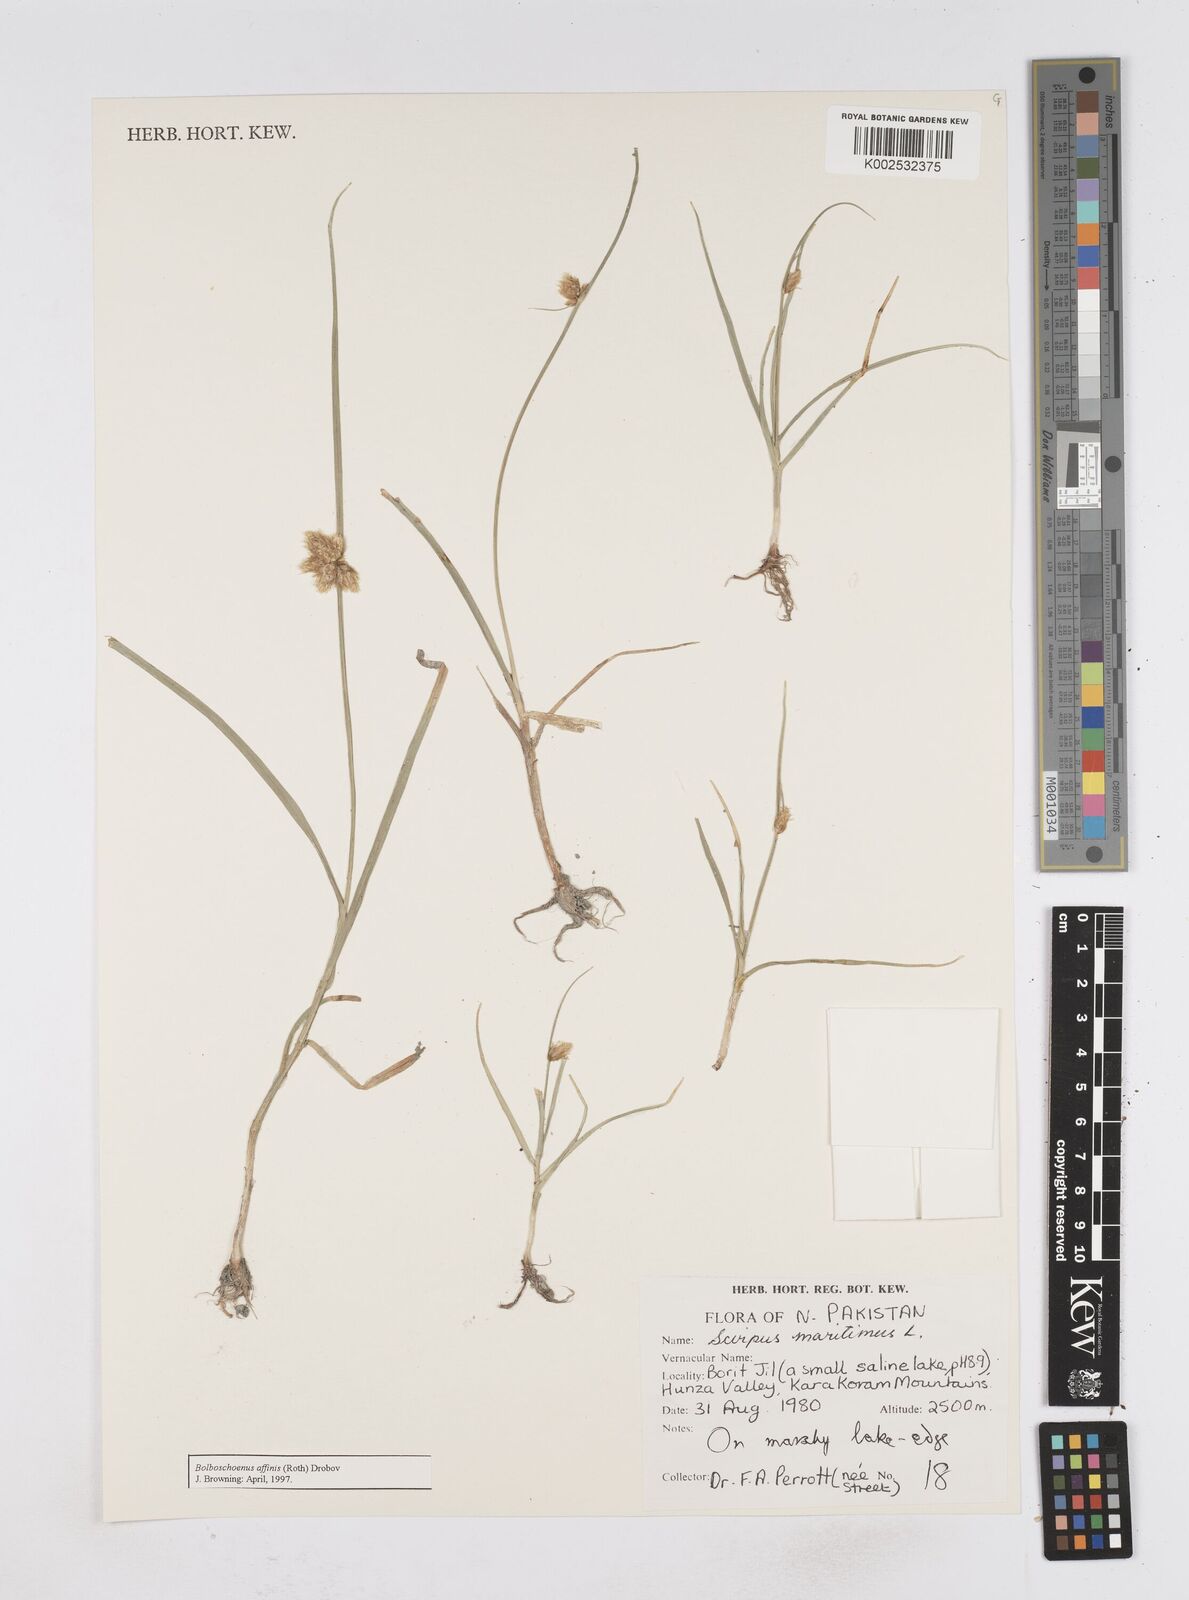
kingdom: Plantae
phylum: Tracheophyta
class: Liliopsida
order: Poales
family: Cyperaceae
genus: Bolboschoenus
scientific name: Bolboschoenus maritimus
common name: Sea club-rush
